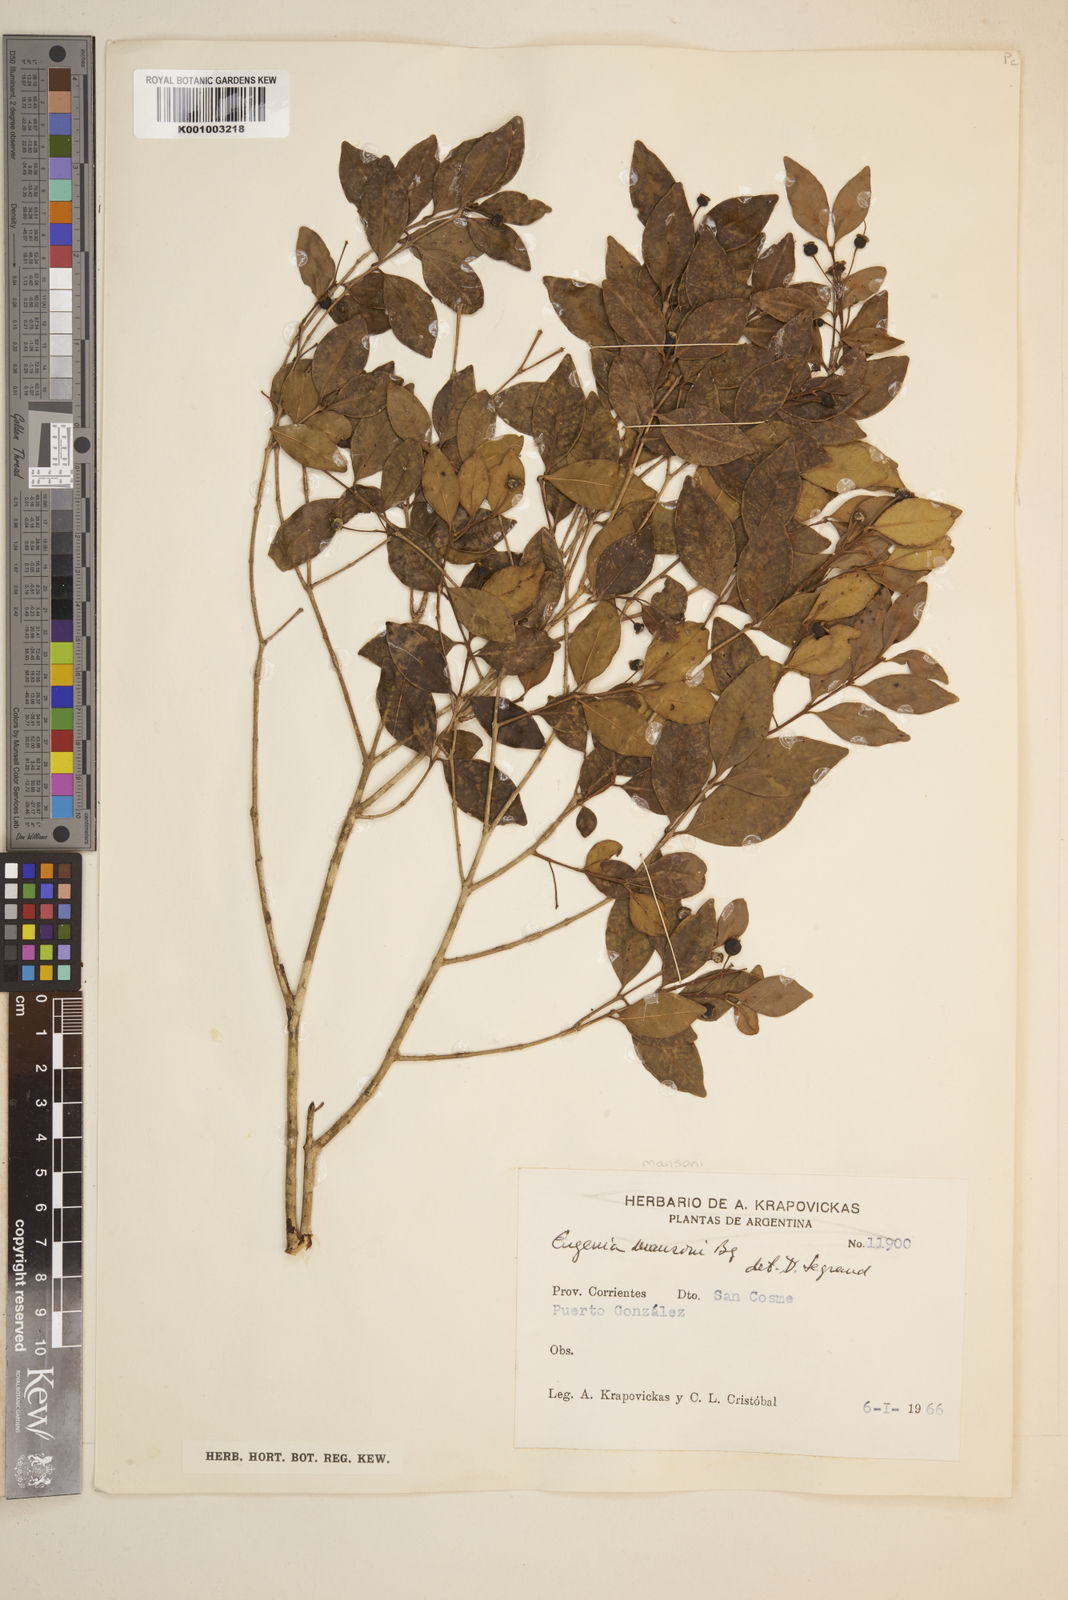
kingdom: Plantae
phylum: Tracheophyta
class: Magnoliopsida
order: Myrtales
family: Myrtaceae
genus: Eugenia
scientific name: Eugenia
